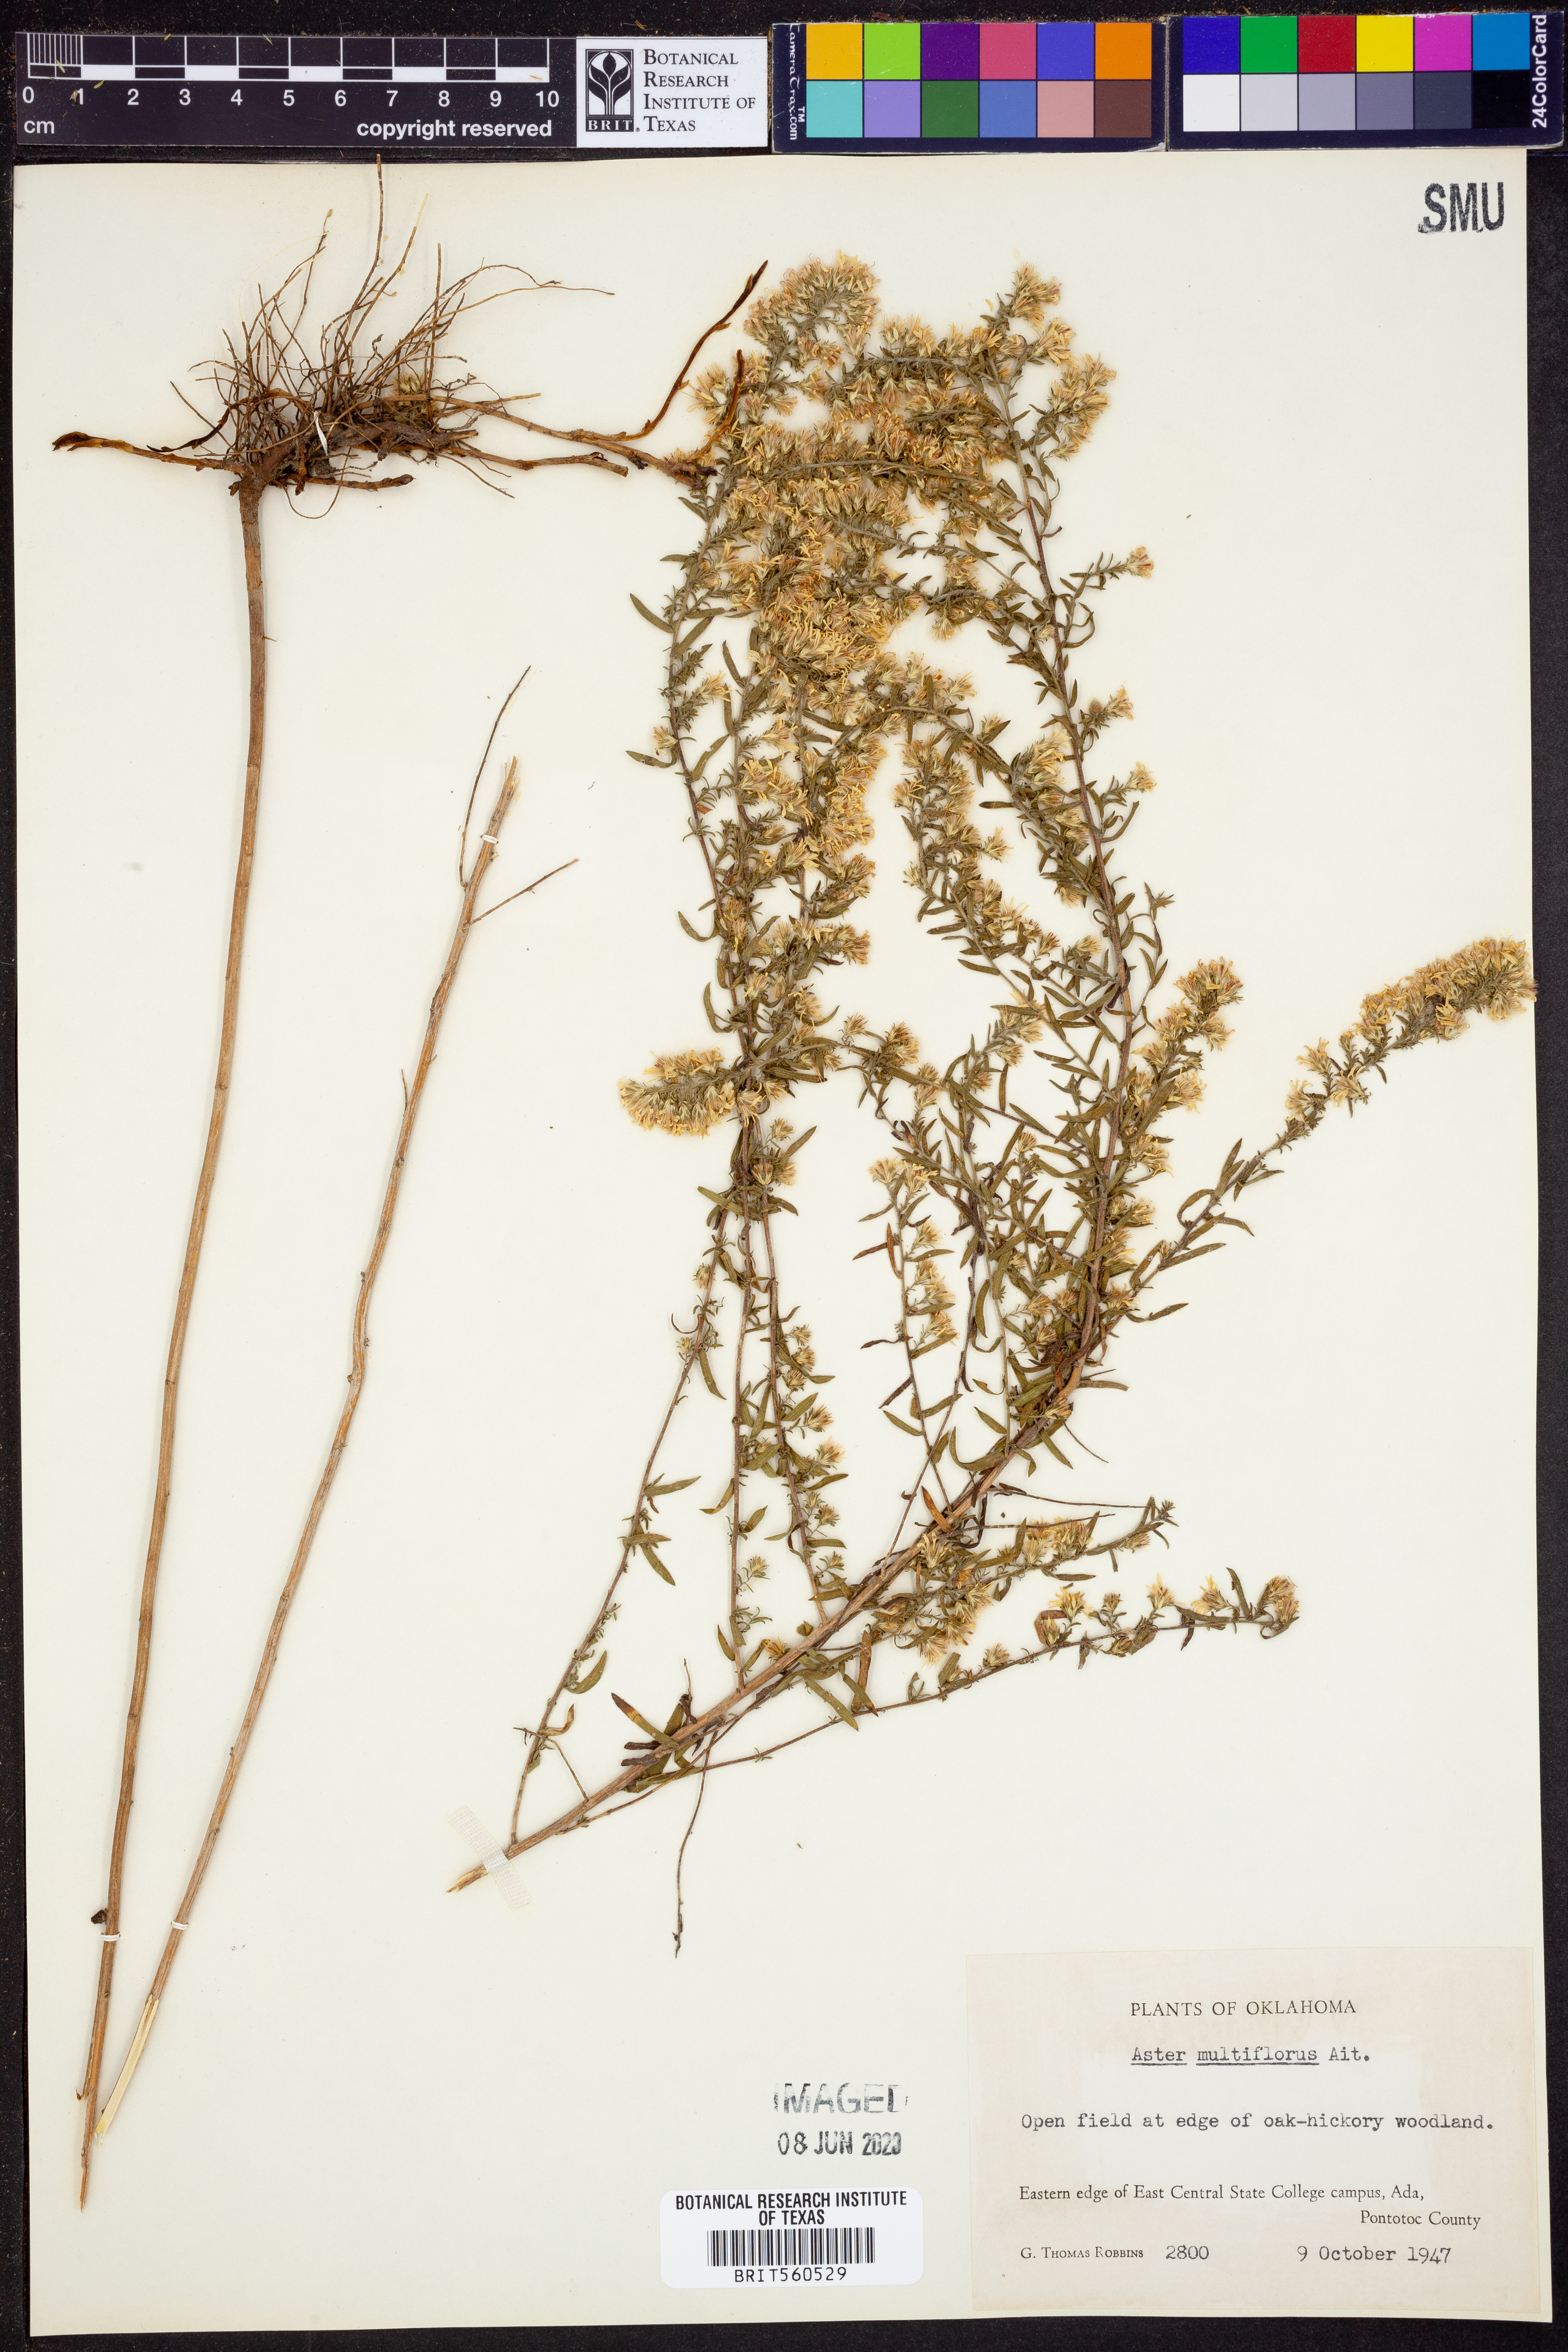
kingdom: Plantae
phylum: Tracheophyta
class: Magnoliopsida
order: Asterales
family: Asteraceae
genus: Symphyotrichum
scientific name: Symphyotrichum ericoides
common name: Heath aster
